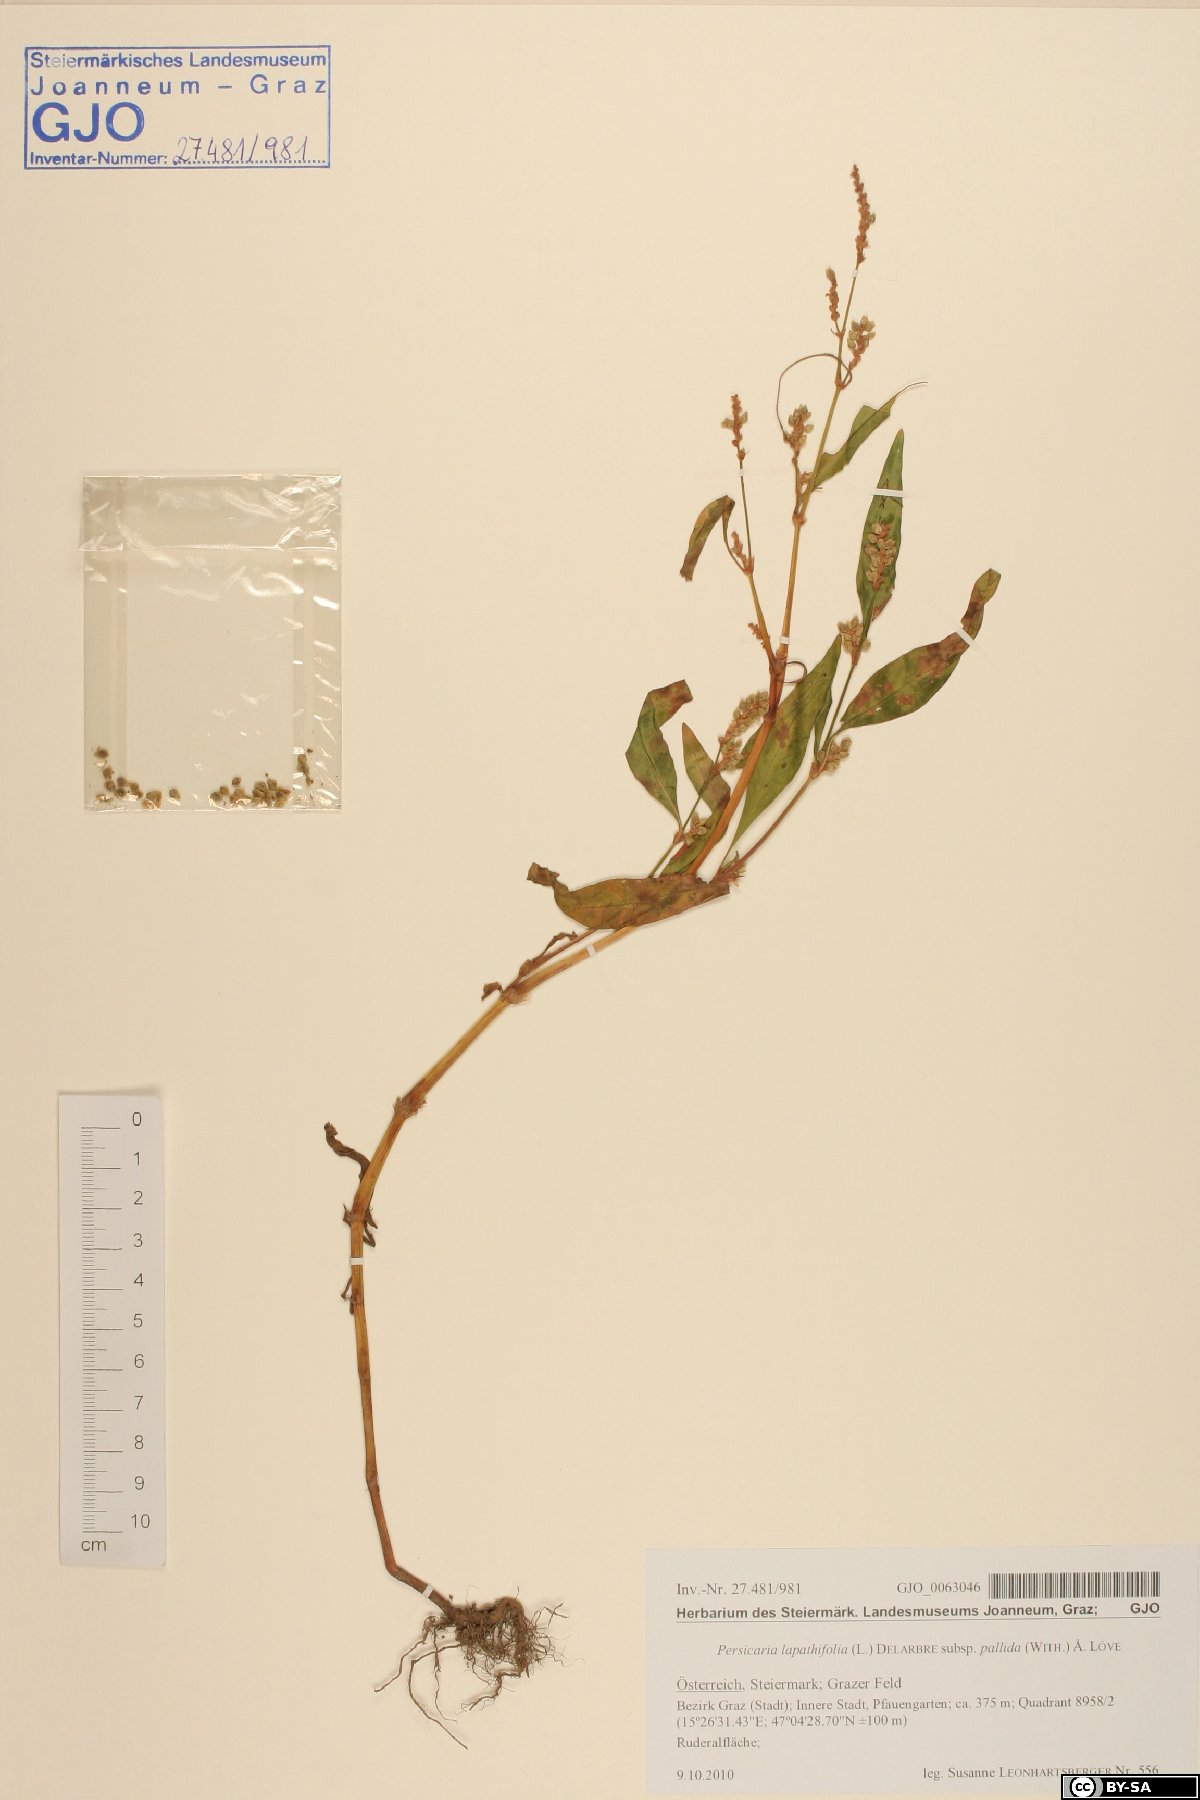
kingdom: Plantae
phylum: Tracheophyta
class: Magnoliopsida
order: Caryophyllales
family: Polygonaceae
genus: Persicaria
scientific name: Persicaria lapathifolia
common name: Curlytop knotweed
